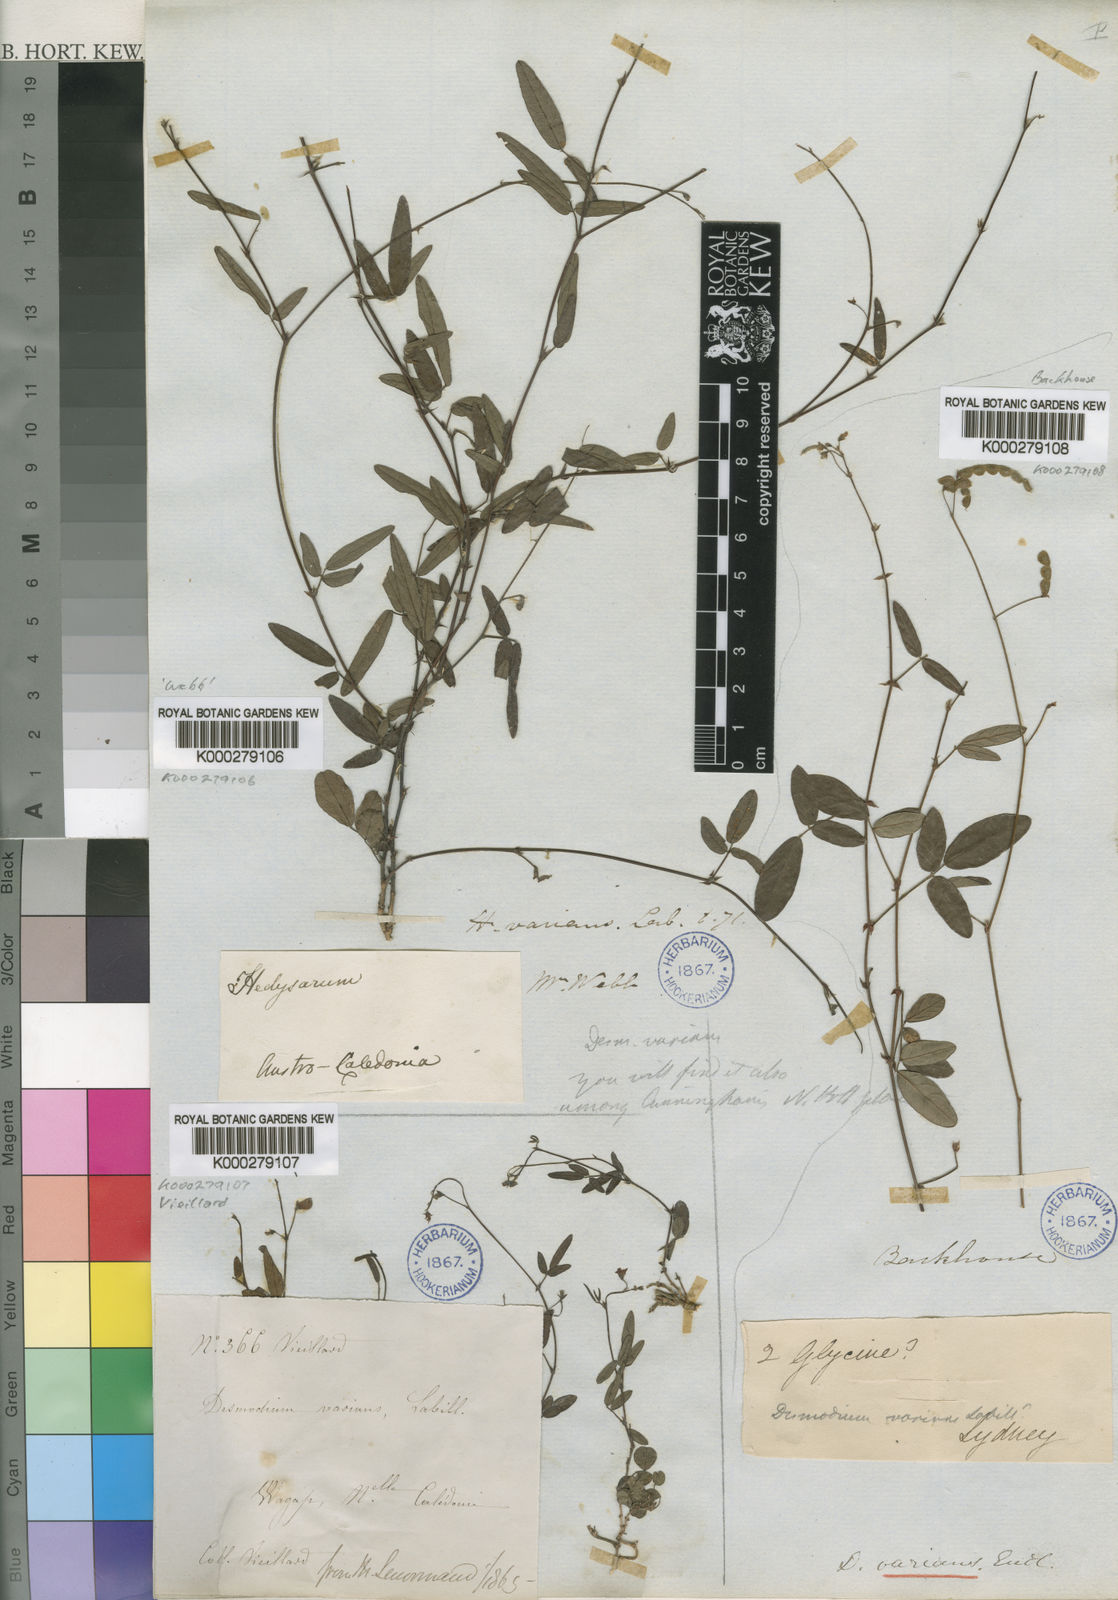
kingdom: Plantae
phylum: Tracheophyta
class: Magnoliopsida
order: Fabales
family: Fabaceae
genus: Grona
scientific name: Grona varians
